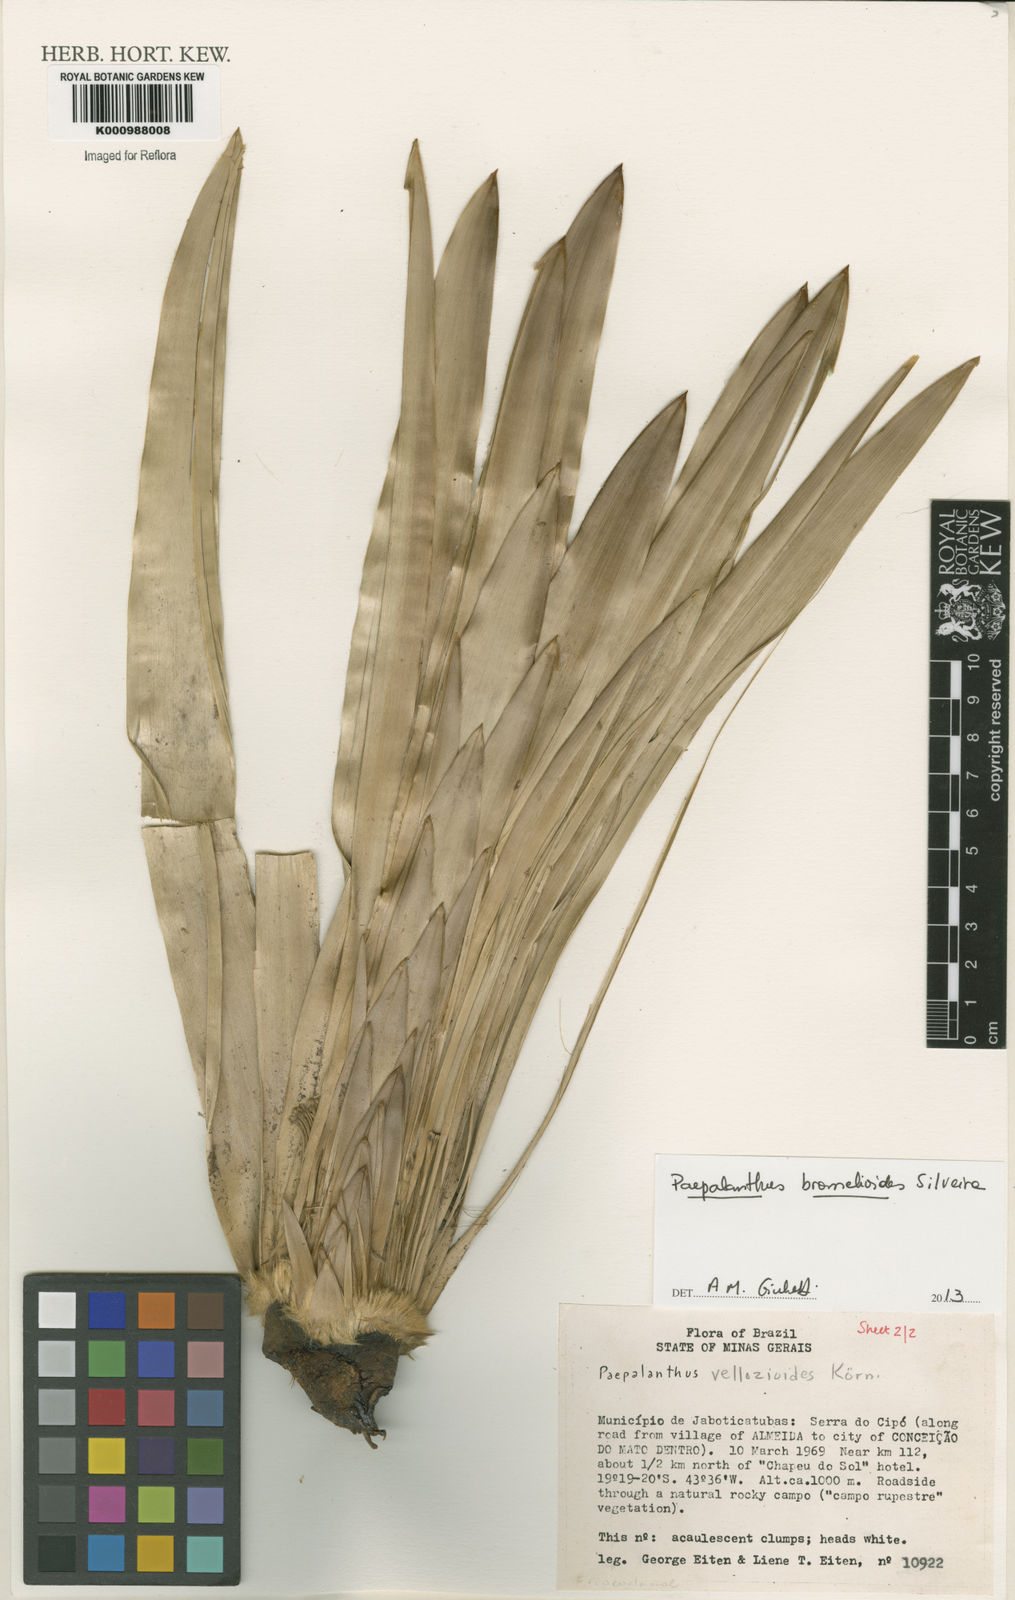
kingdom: Plantae
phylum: Tracheophyta
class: Liliopsida
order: Poales
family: Eriocaulaceae
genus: Paepalanthus
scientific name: Paepalanthus bromelioides
